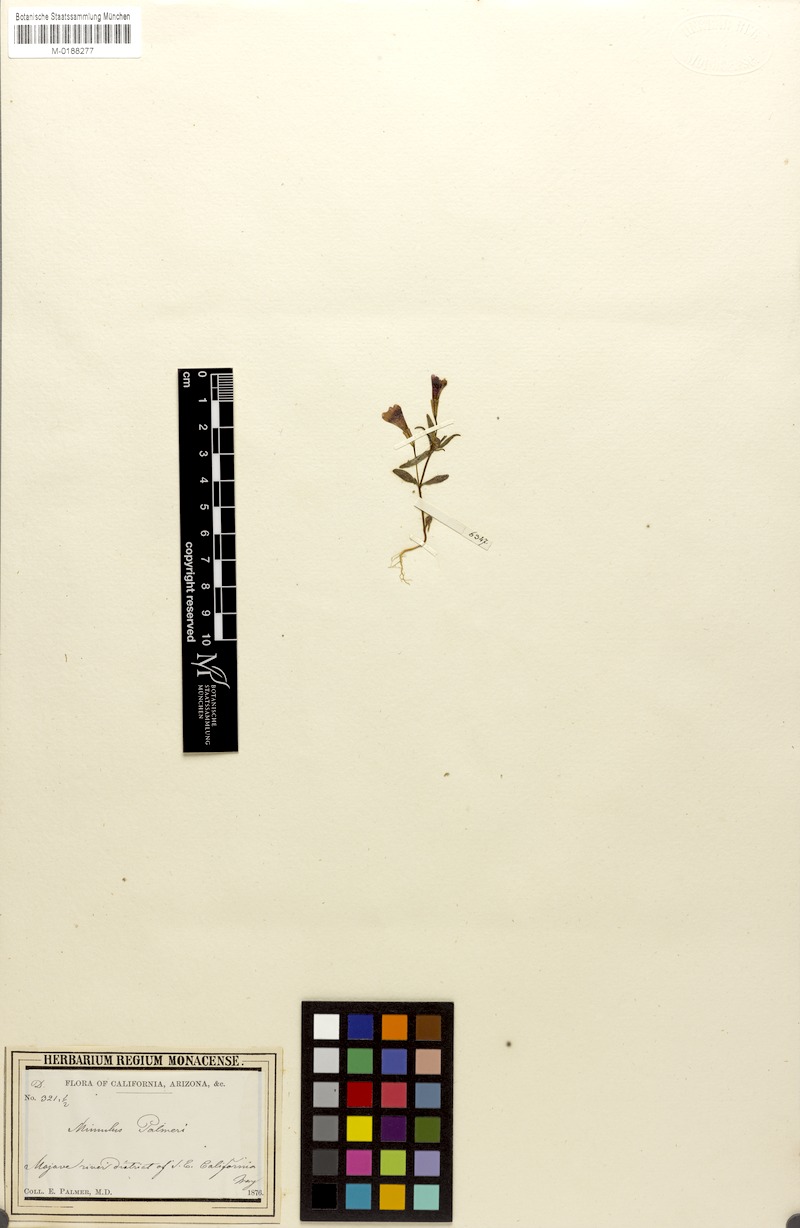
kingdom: Plantae
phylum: Tracheophyta
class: Magnoliopsida
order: Lamiales
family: Phrymaceae
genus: Erythranthe
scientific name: Erythranthe palmeri
